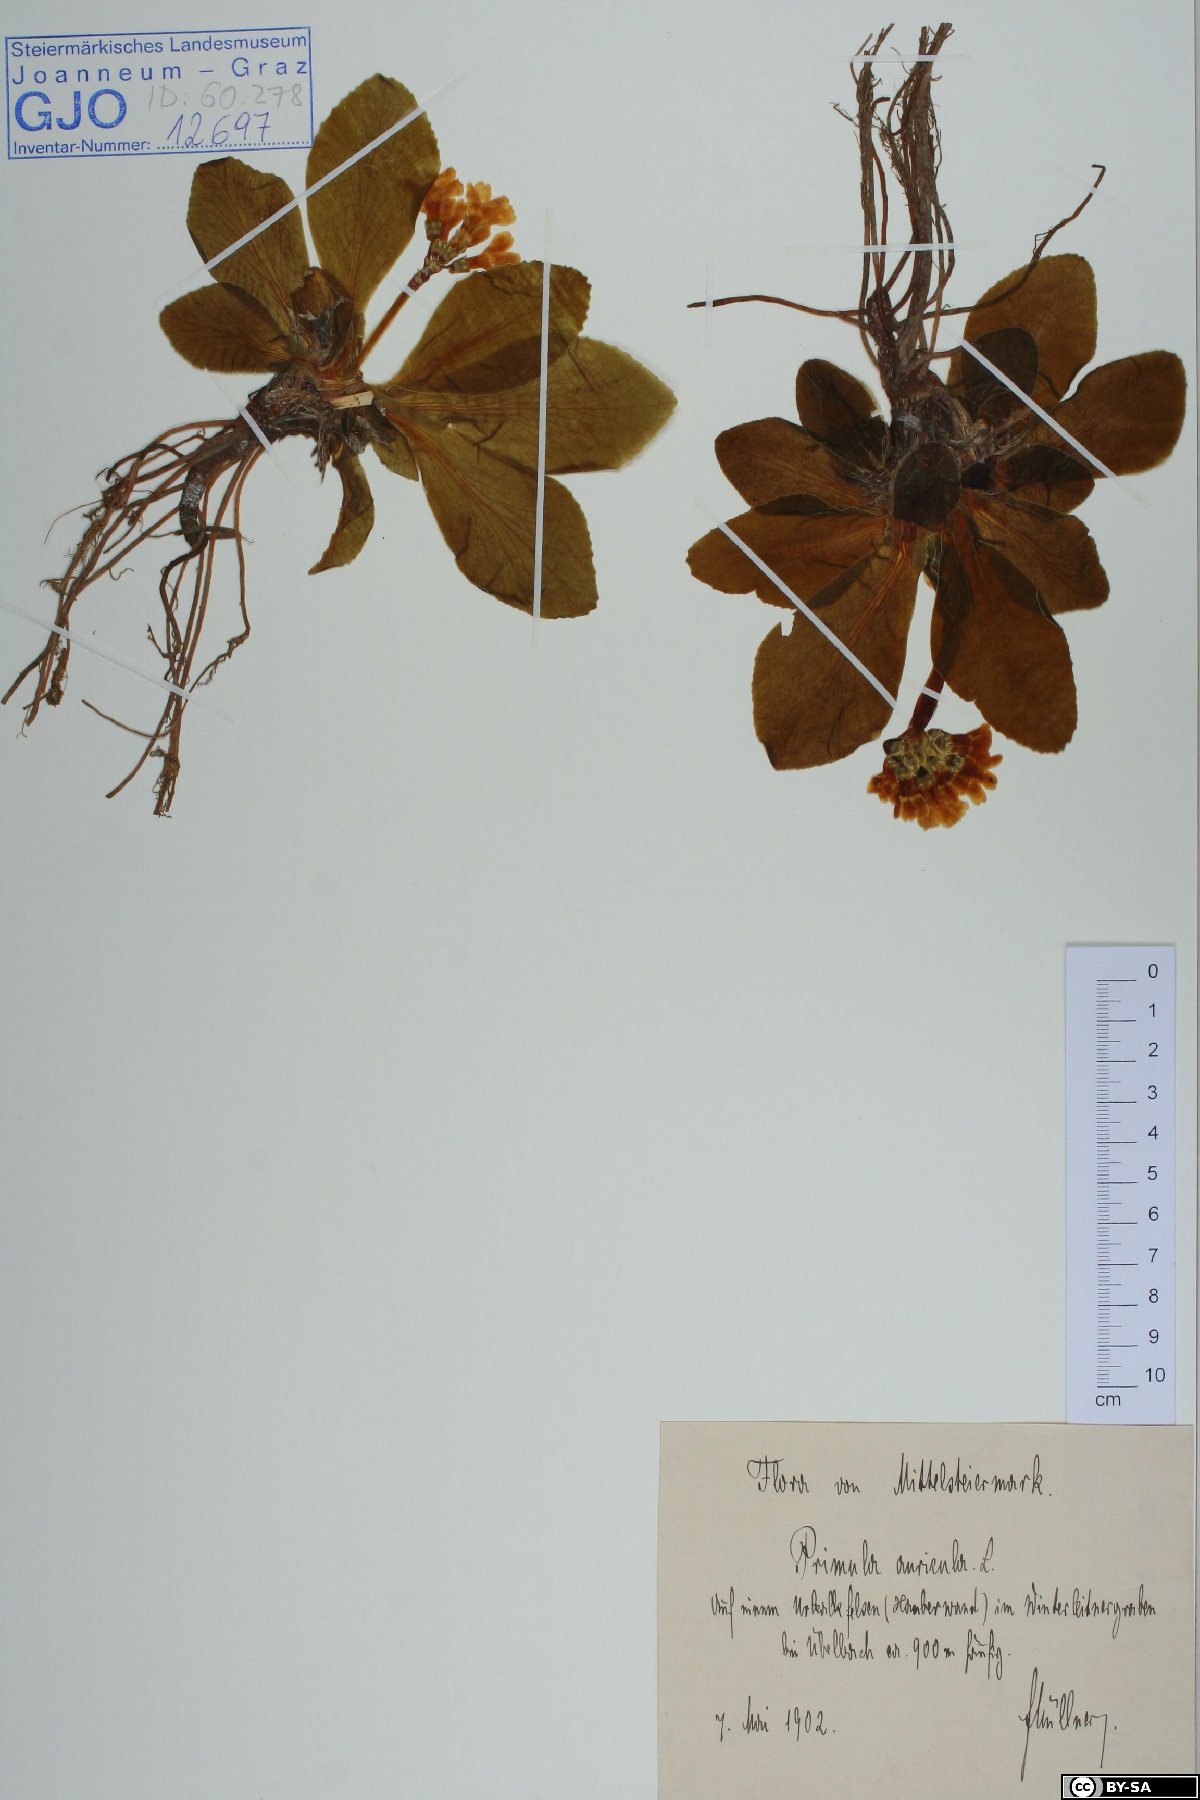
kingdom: Plantae
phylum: Tracheophyta
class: Magnoliopsida
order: Ericales
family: Primulaceae
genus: Primula
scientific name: Primula auricula
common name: Auricula
